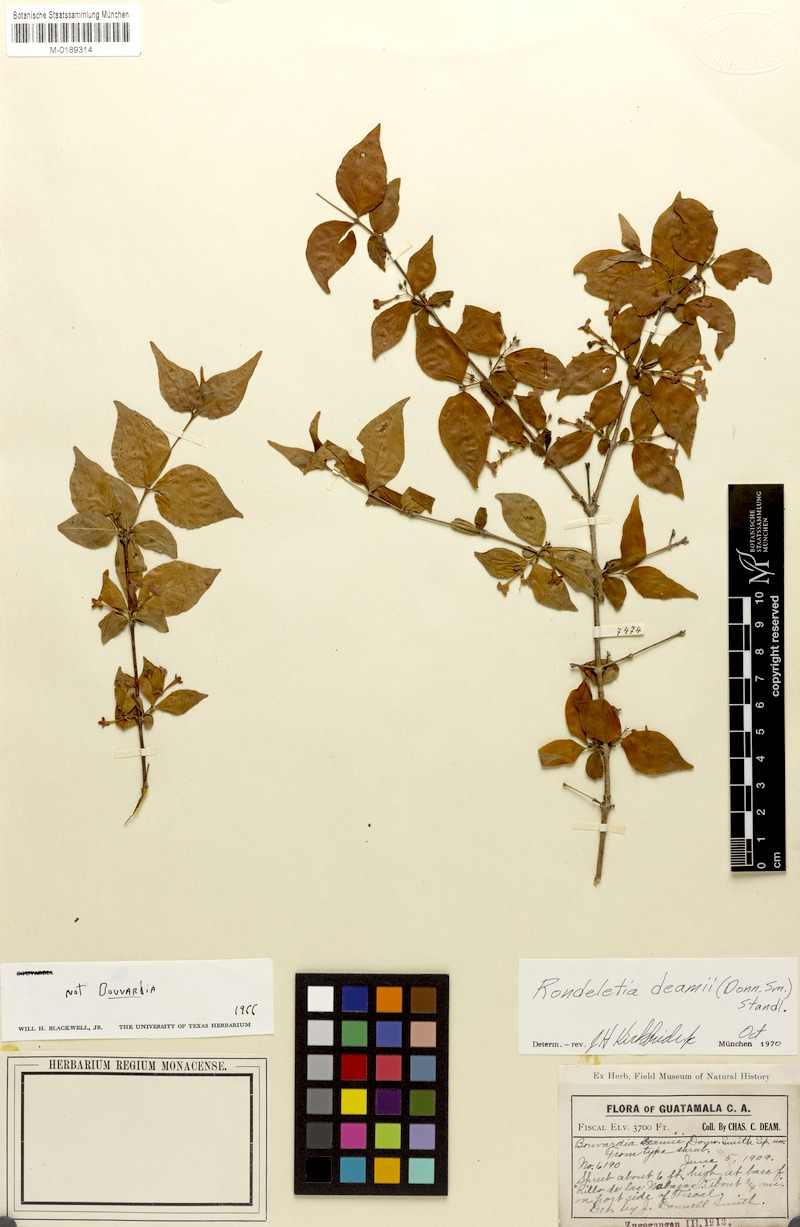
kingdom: Plantae
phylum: Tracheophyta
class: Magnoliopsida
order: Gentianales
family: Rubiaceae
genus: Donnellyanthus
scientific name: Donnellyanthus deamii
